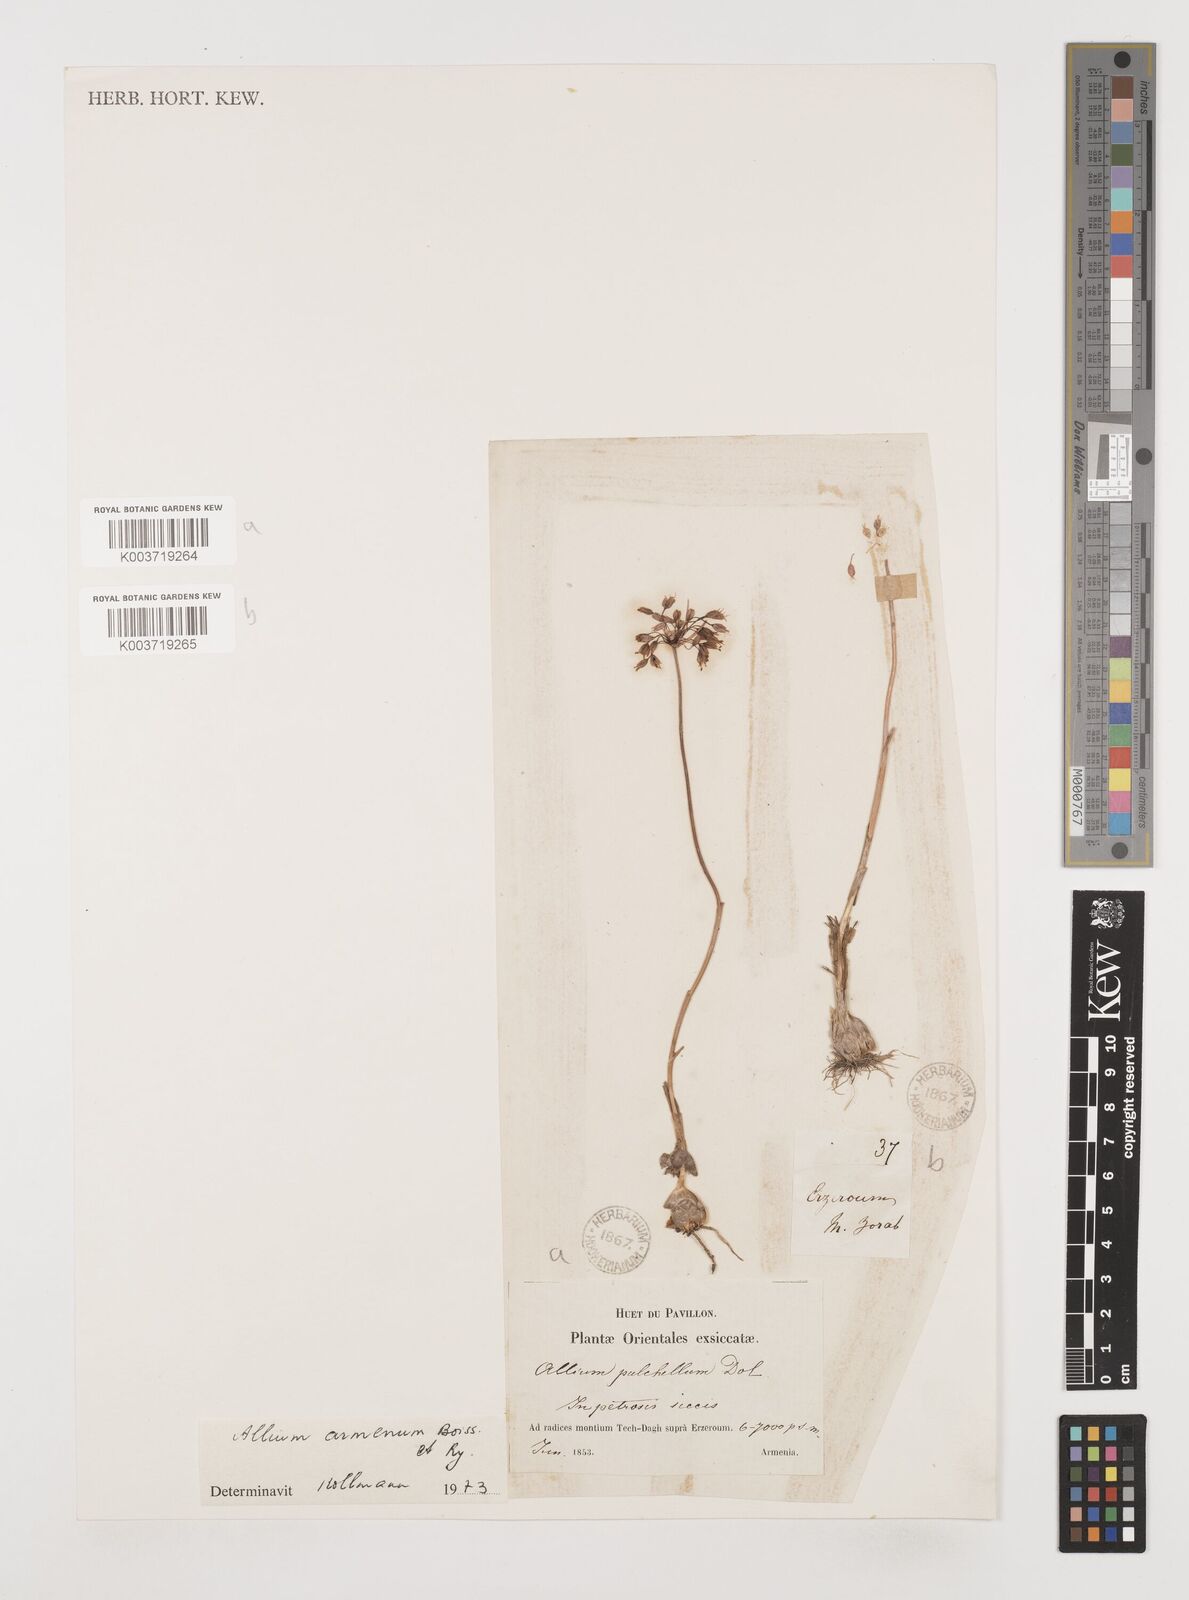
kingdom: Plantae
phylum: Tracheophyta
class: Liliopsida
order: Asparagales
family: Amaryllidaceae
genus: Allium
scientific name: Allium armenum
